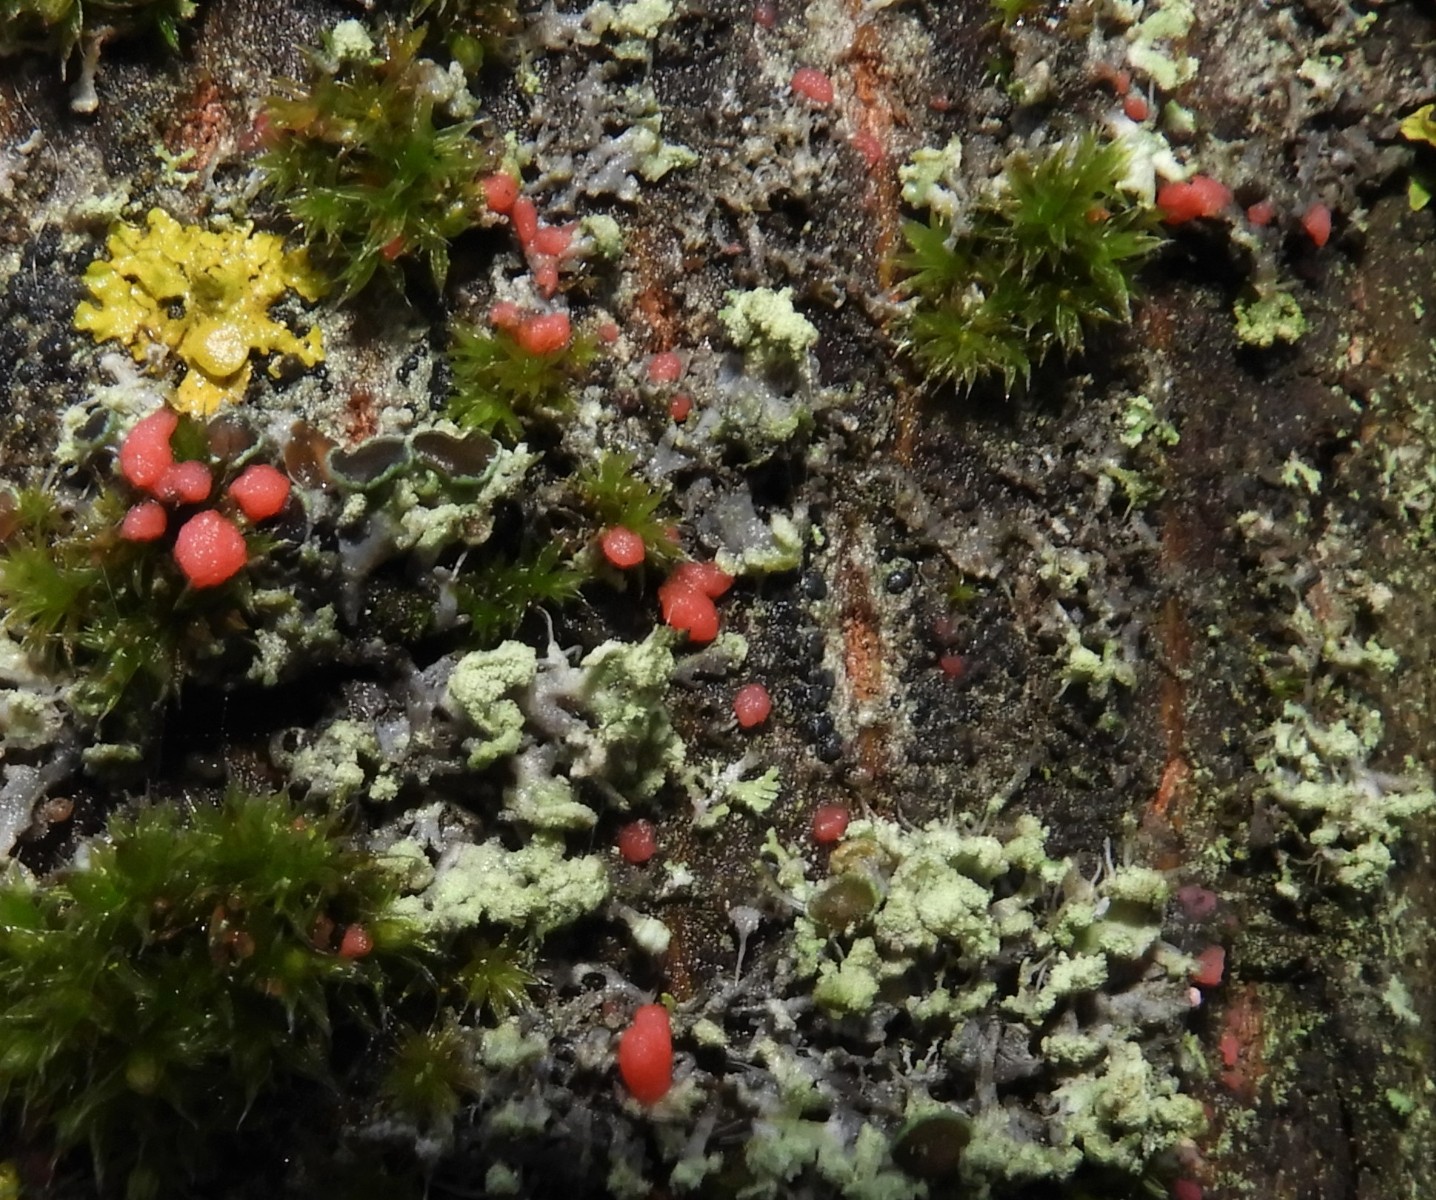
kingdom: Fungi
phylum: Ascomycota
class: Sordariomycetes
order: Hypocreales
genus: Illosporiopsis
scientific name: Illosporiopsis christiansenii
